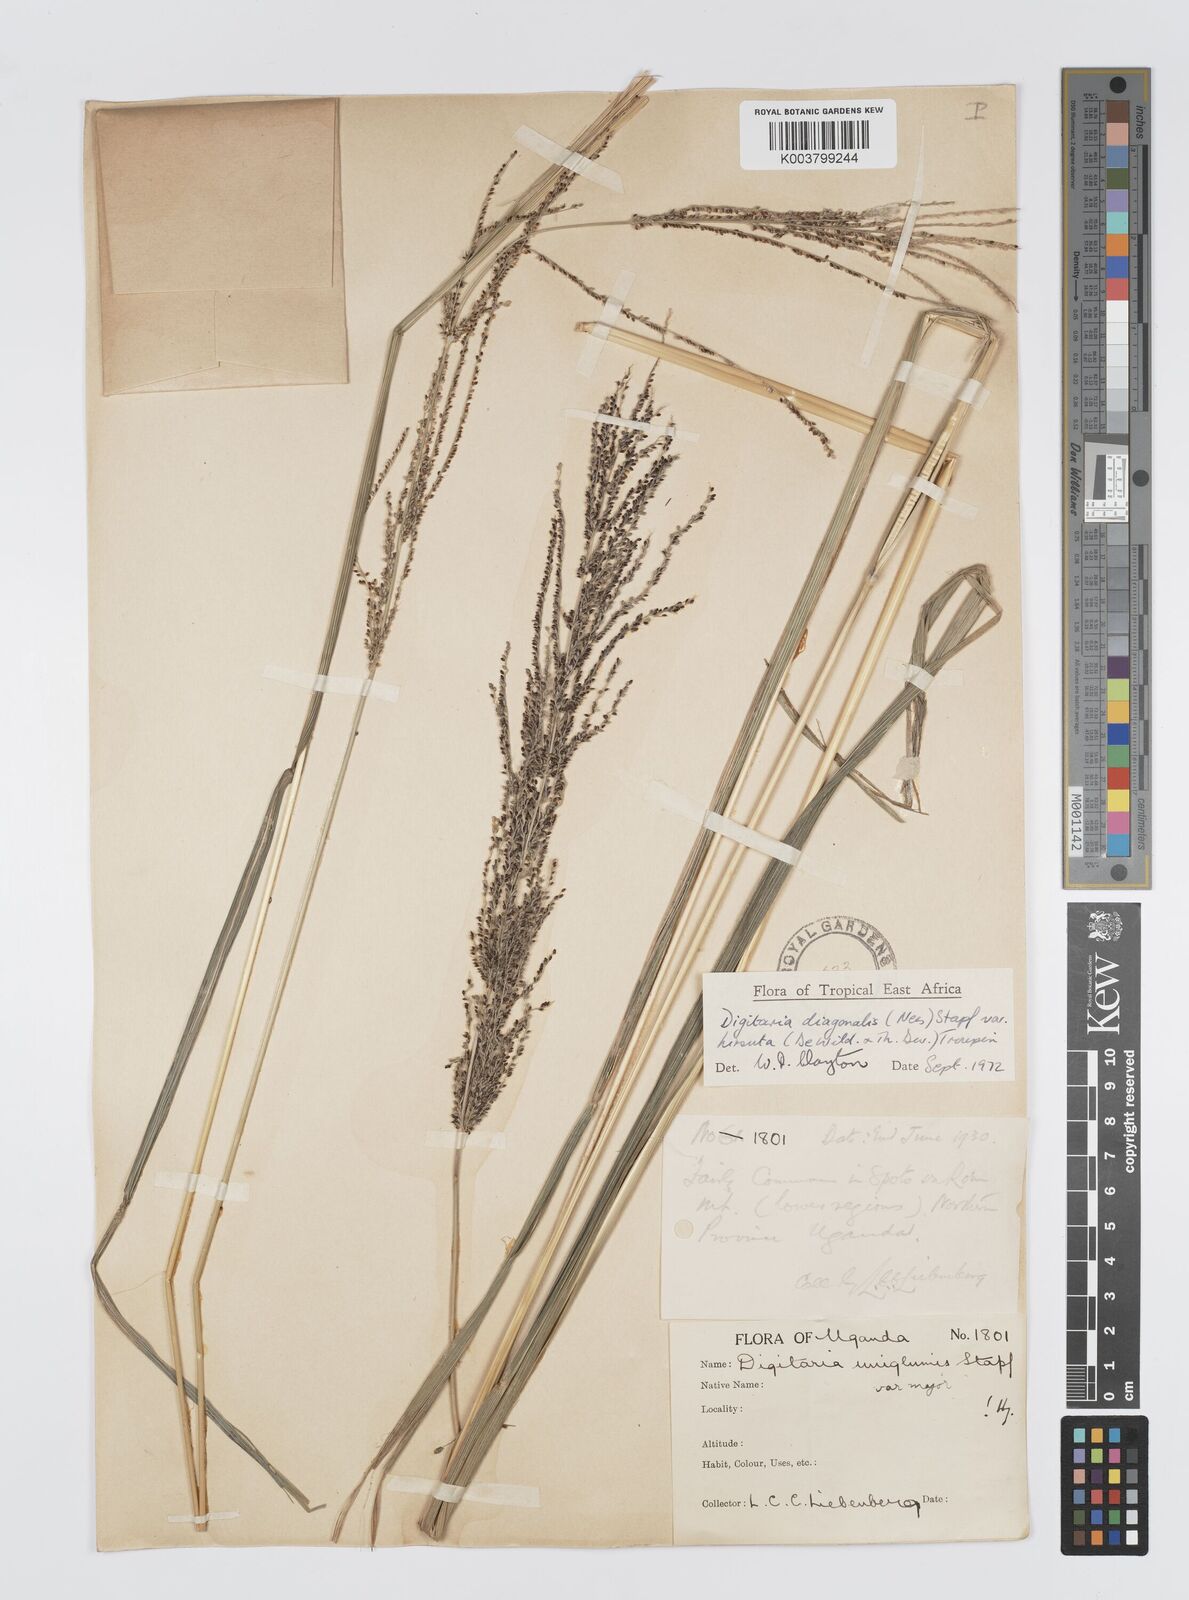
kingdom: Plantae
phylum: Tracheophyta
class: Liliopsida
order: Poales
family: Poaceae
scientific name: Poaceae
